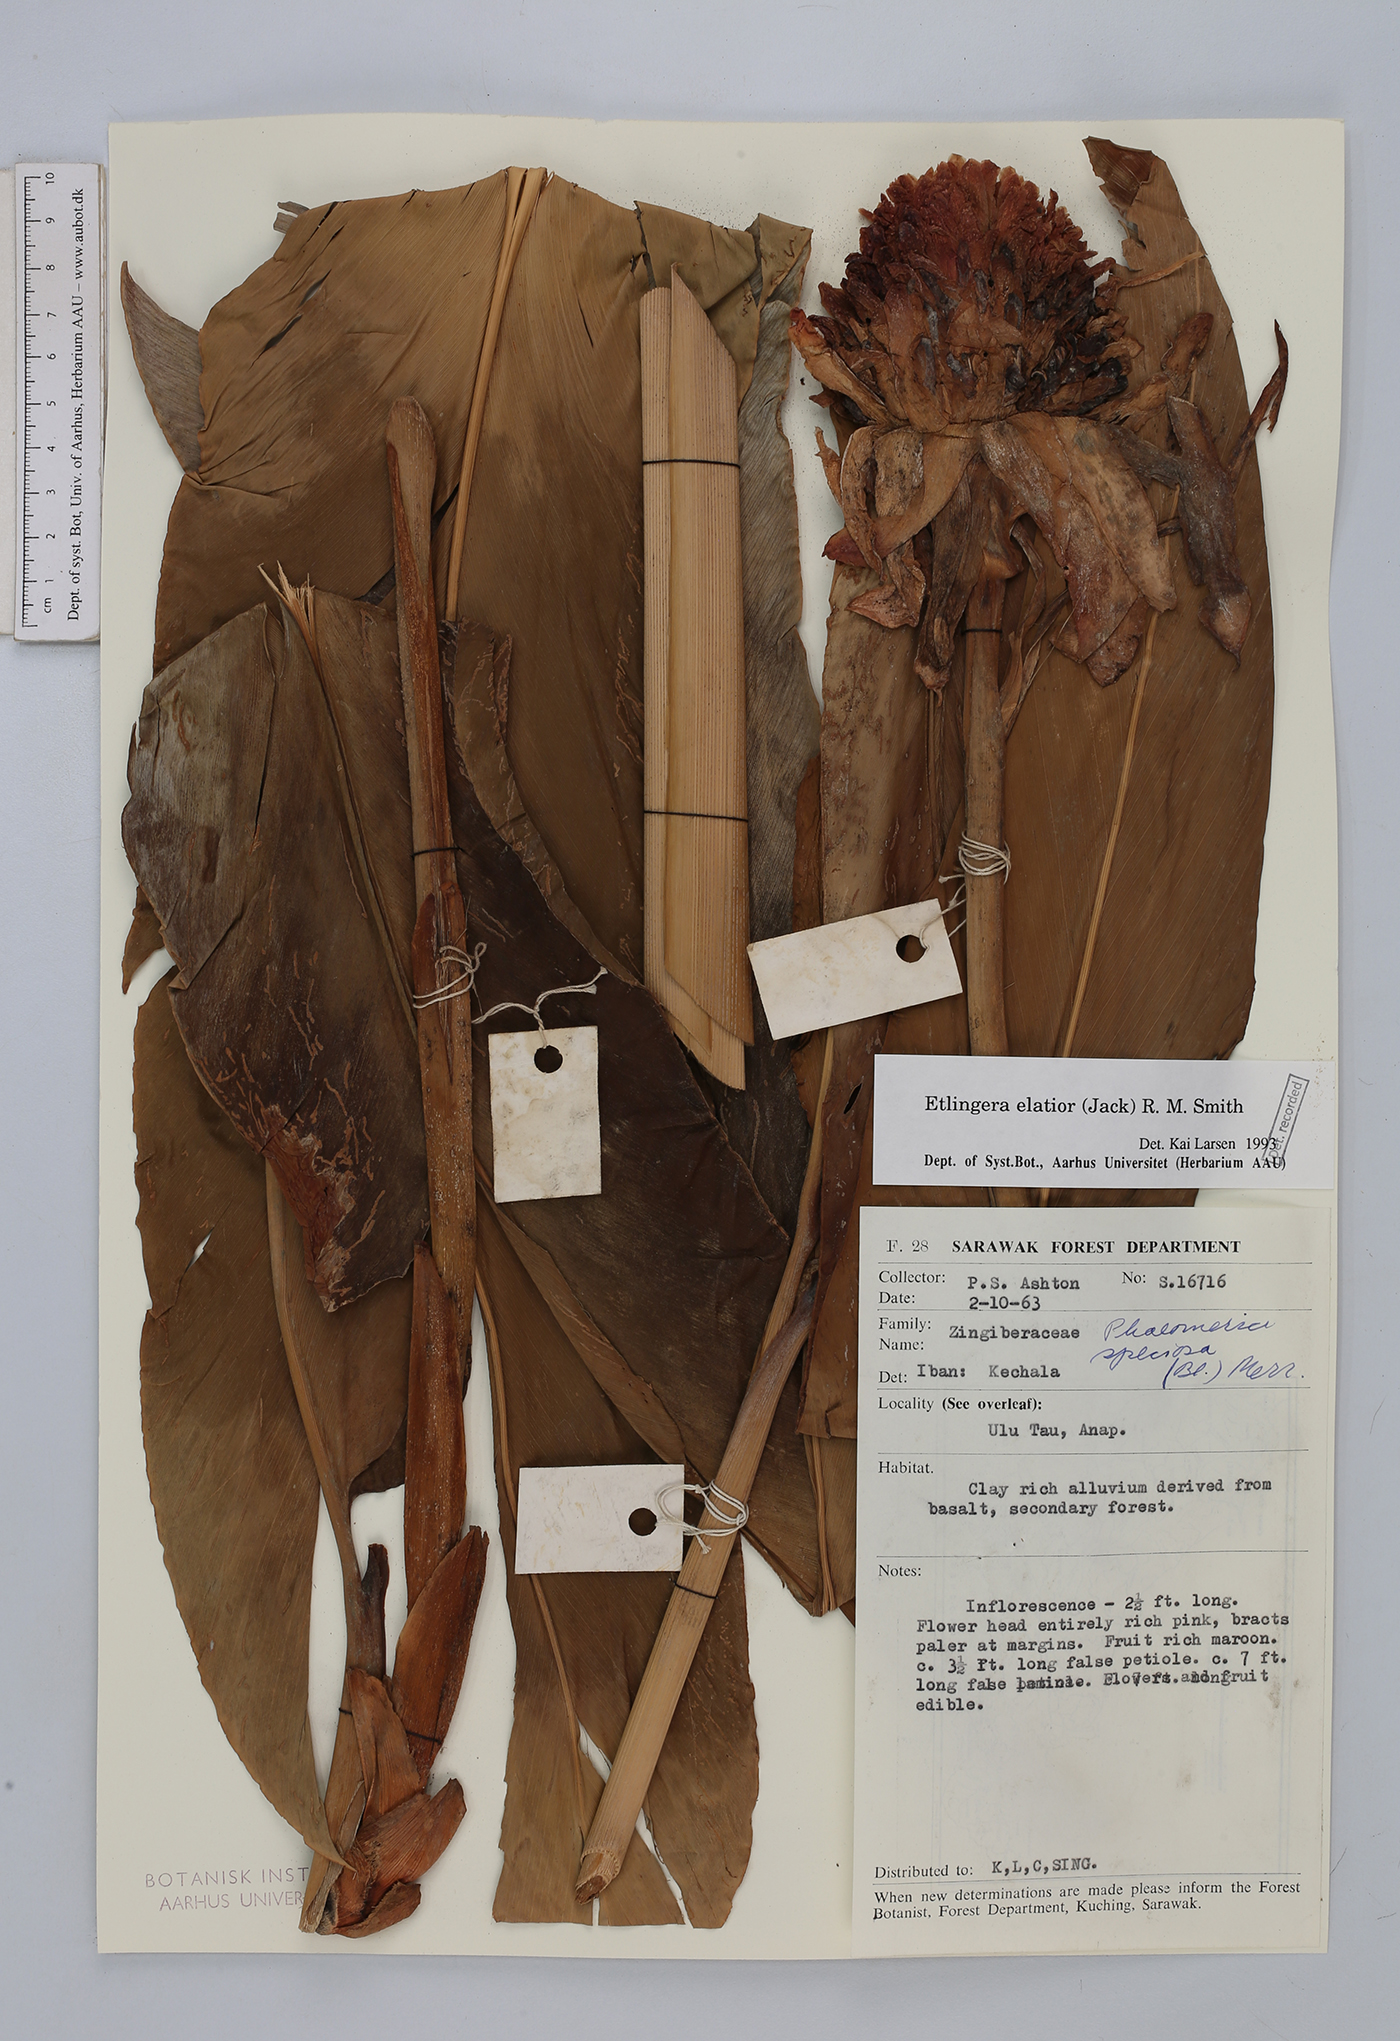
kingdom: Plantae
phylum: Tracheophyta
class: Liliopsida
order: Zingiberales
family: Zingiberaceae
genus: Etlingera
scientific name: Etlingera elatior
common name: Philippine waxflower
